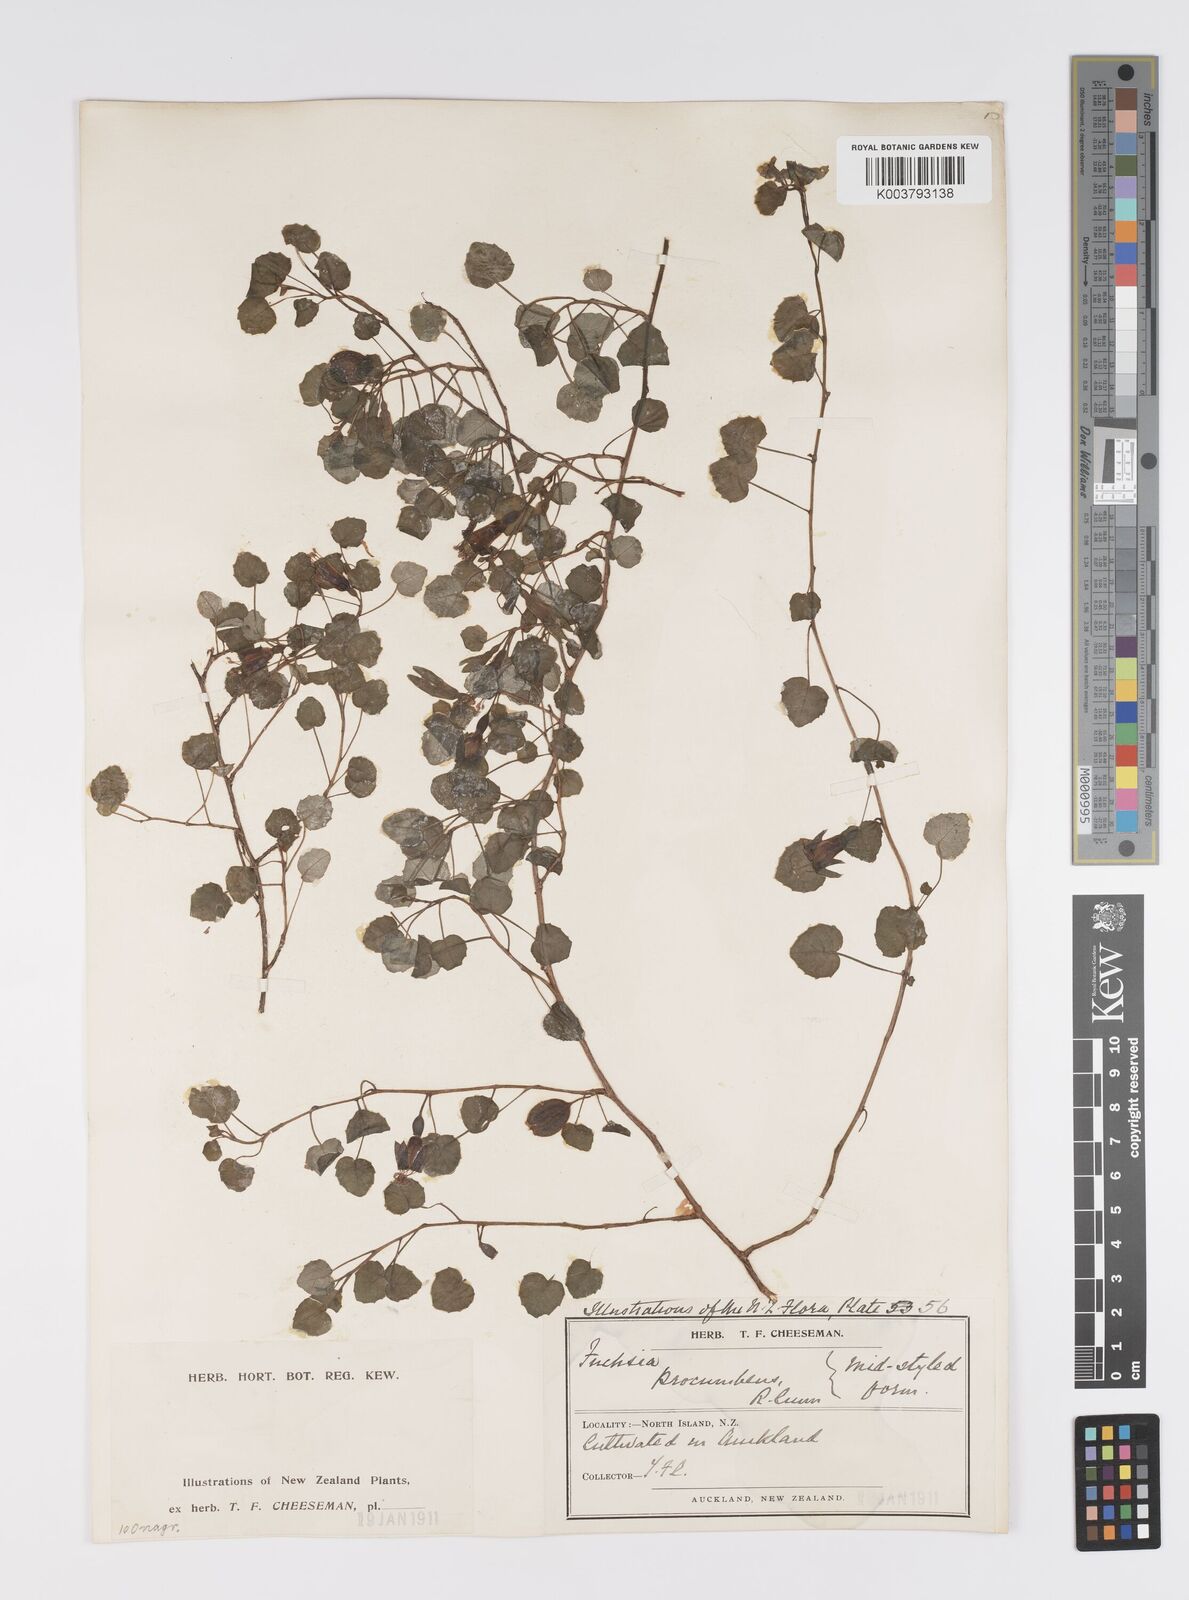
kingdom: Plantae
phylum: Tracheophyta
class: Magnoliopsida
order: Myrtales
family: Onagraceae
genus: Fuchsia
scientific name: Fuchsia procumbens
